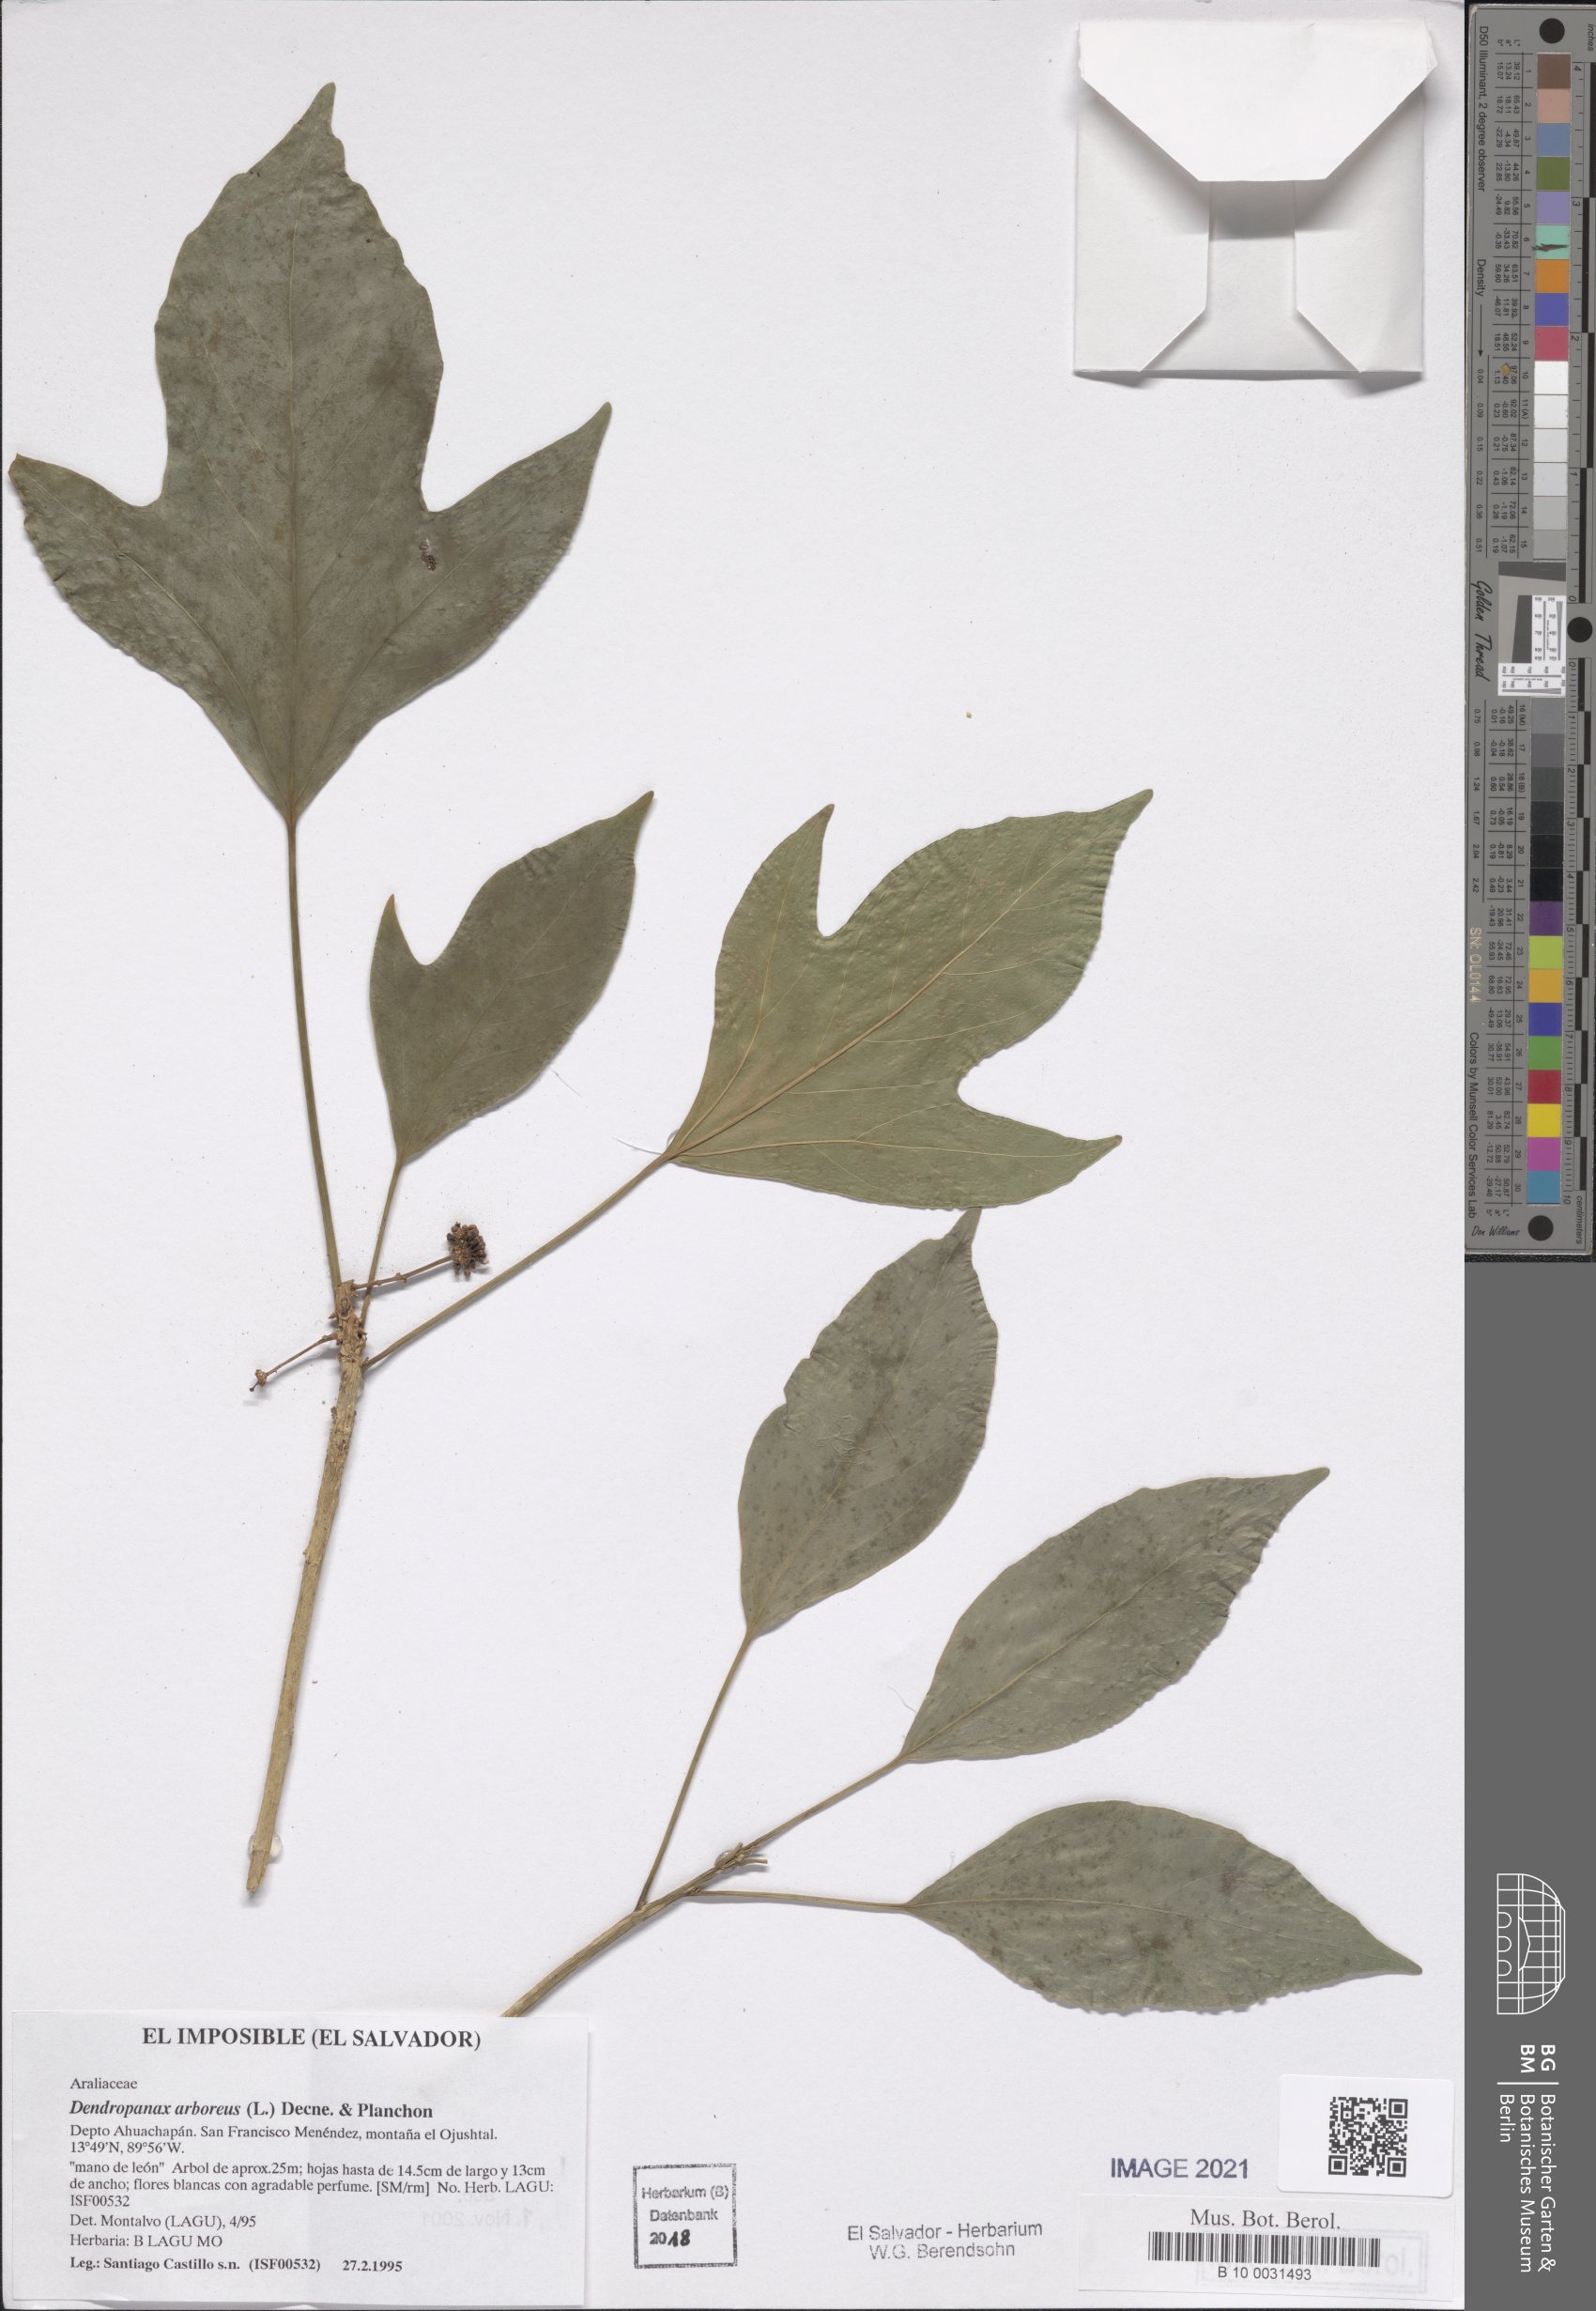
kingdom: Plantae
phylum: Tracheophyta
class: Magnoliopsida
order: Apiales
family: Araliaceae
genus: Dendropanax
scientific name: Dendropanax arboreus
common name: Potato-wood
